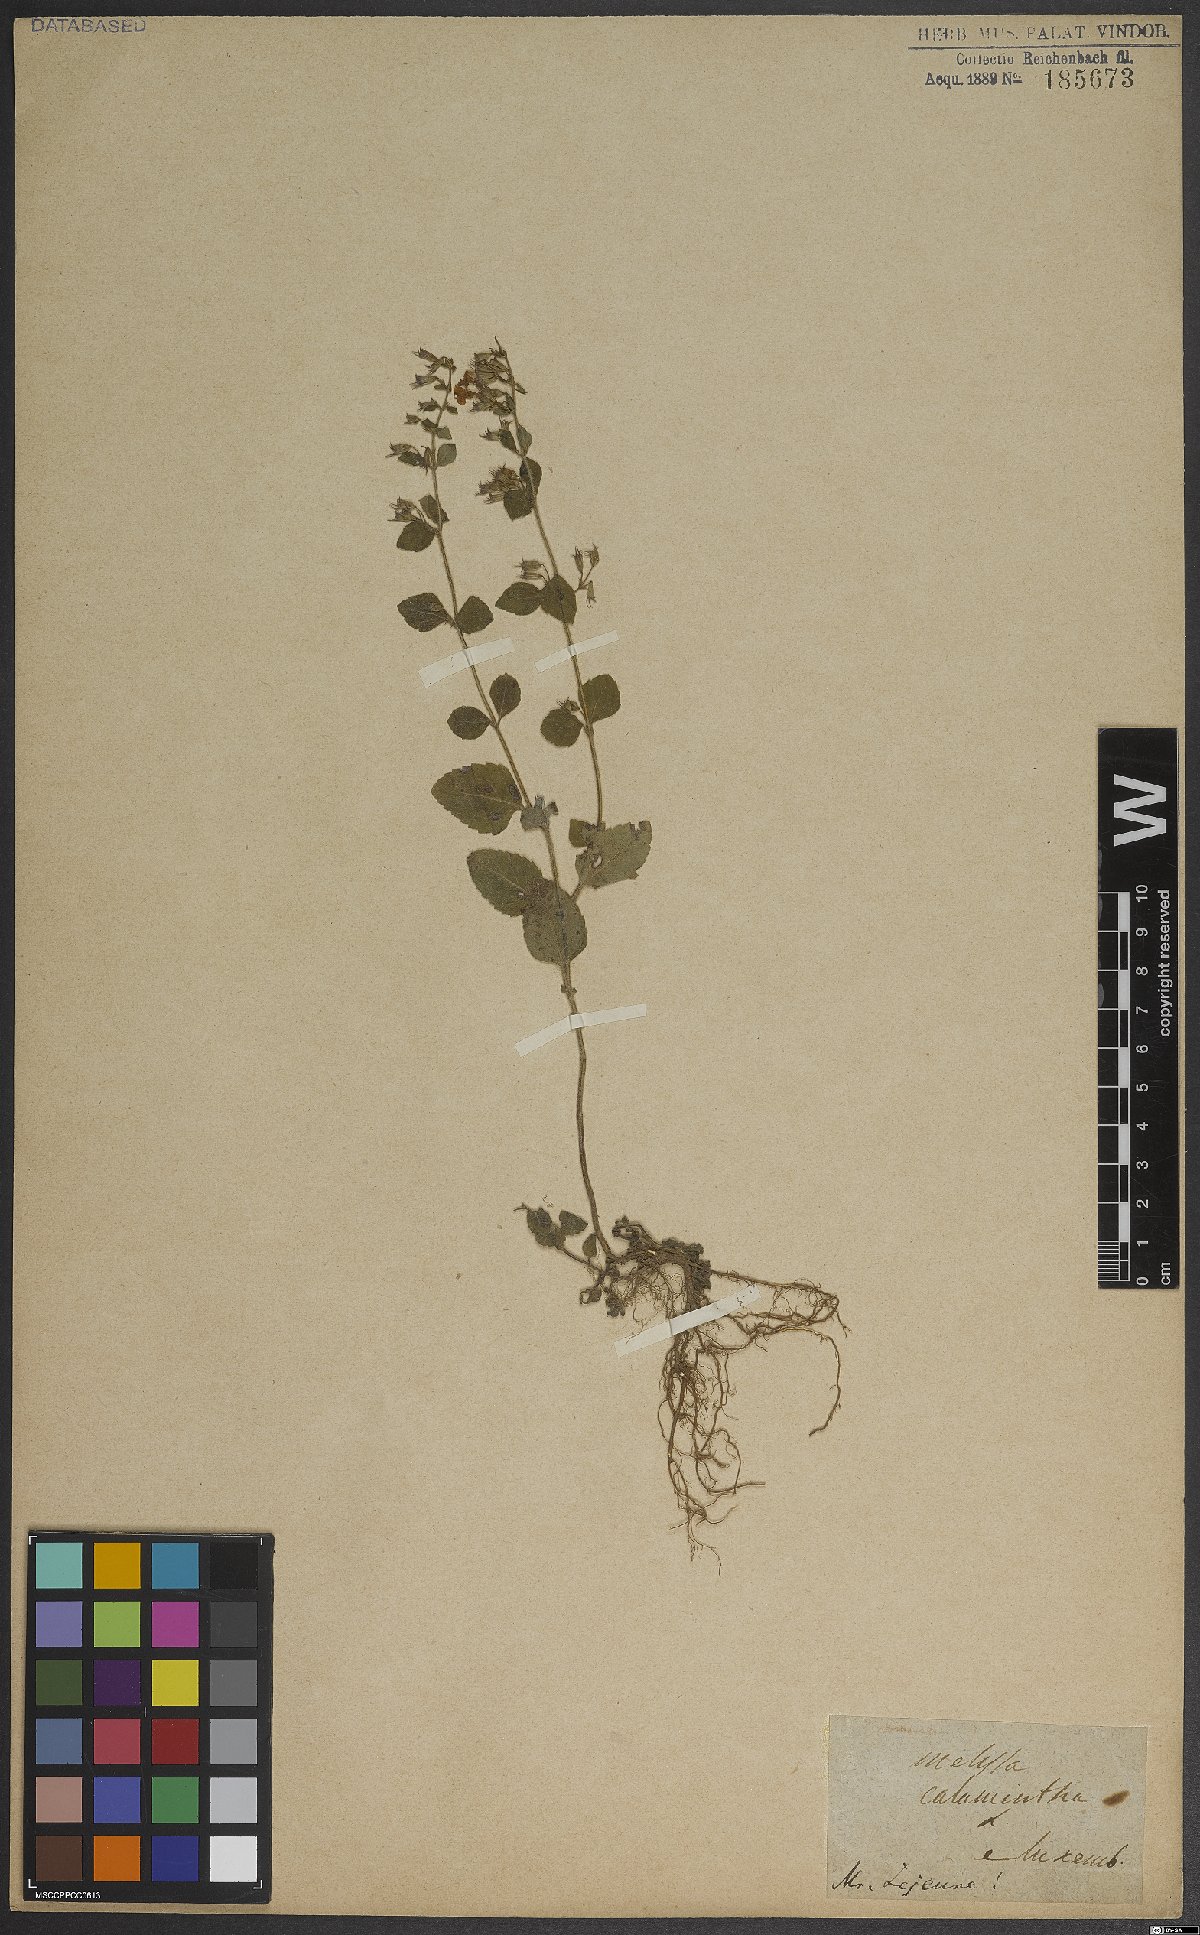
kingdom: Plantae
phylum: Tracheophyta
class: Magnoliopsida
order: Lamiales
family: Lamiaceae
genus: Clinopodium
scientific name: Clinopodium menthifolium
